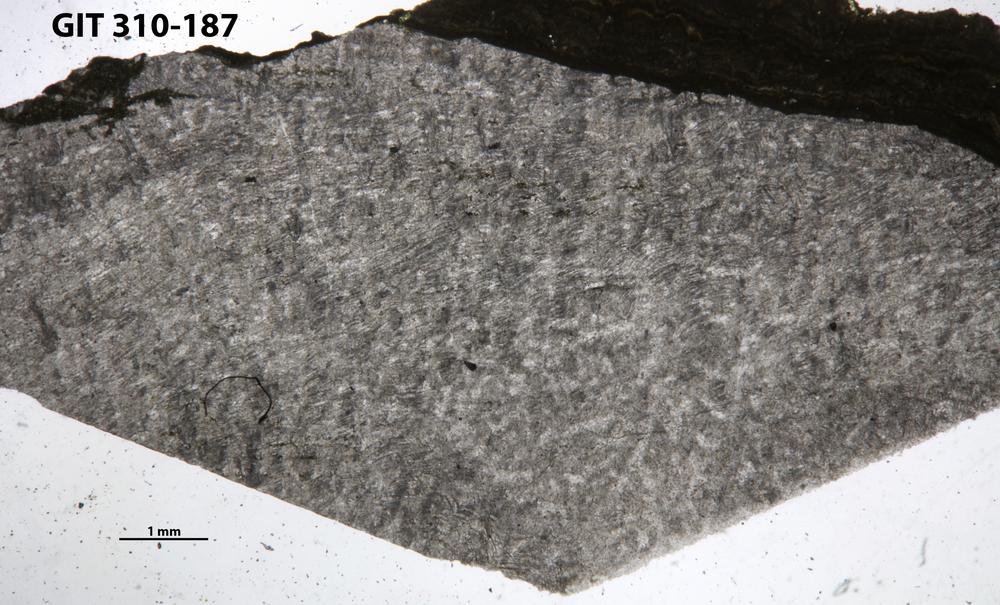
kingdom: Animalia
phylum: Porifera
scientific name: Porifera
